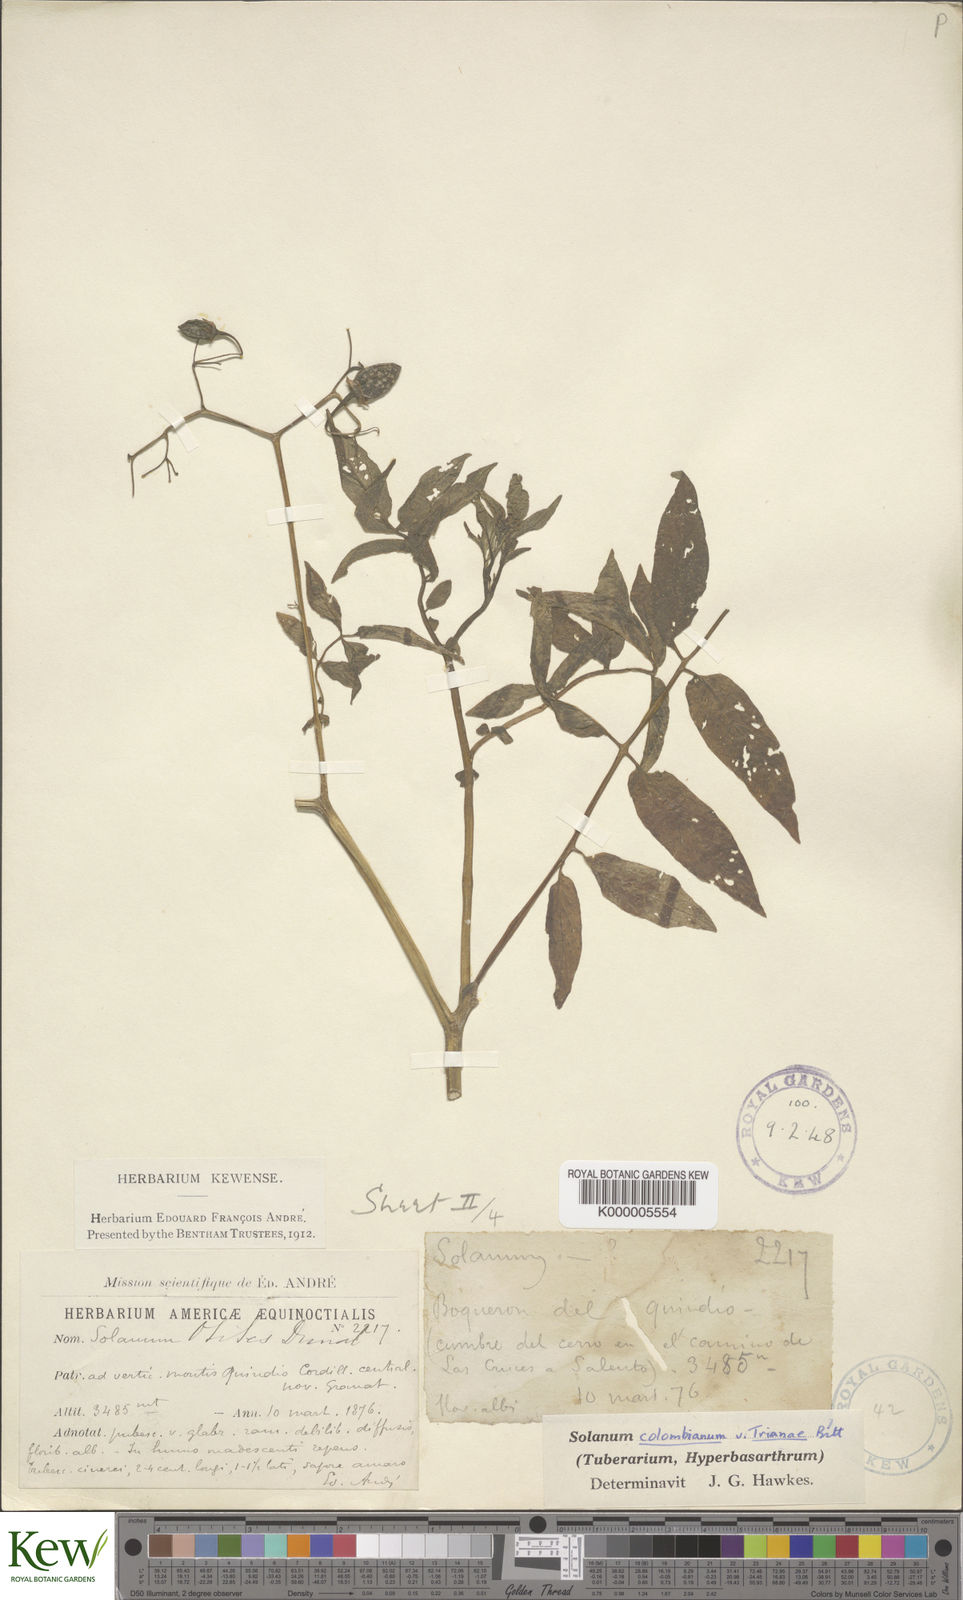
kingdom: Plantae
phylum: Tracheophyta
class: Magnoliopsida
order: Solanales
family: Solanaceae
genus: Solanum
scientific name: Solanum colombianum
